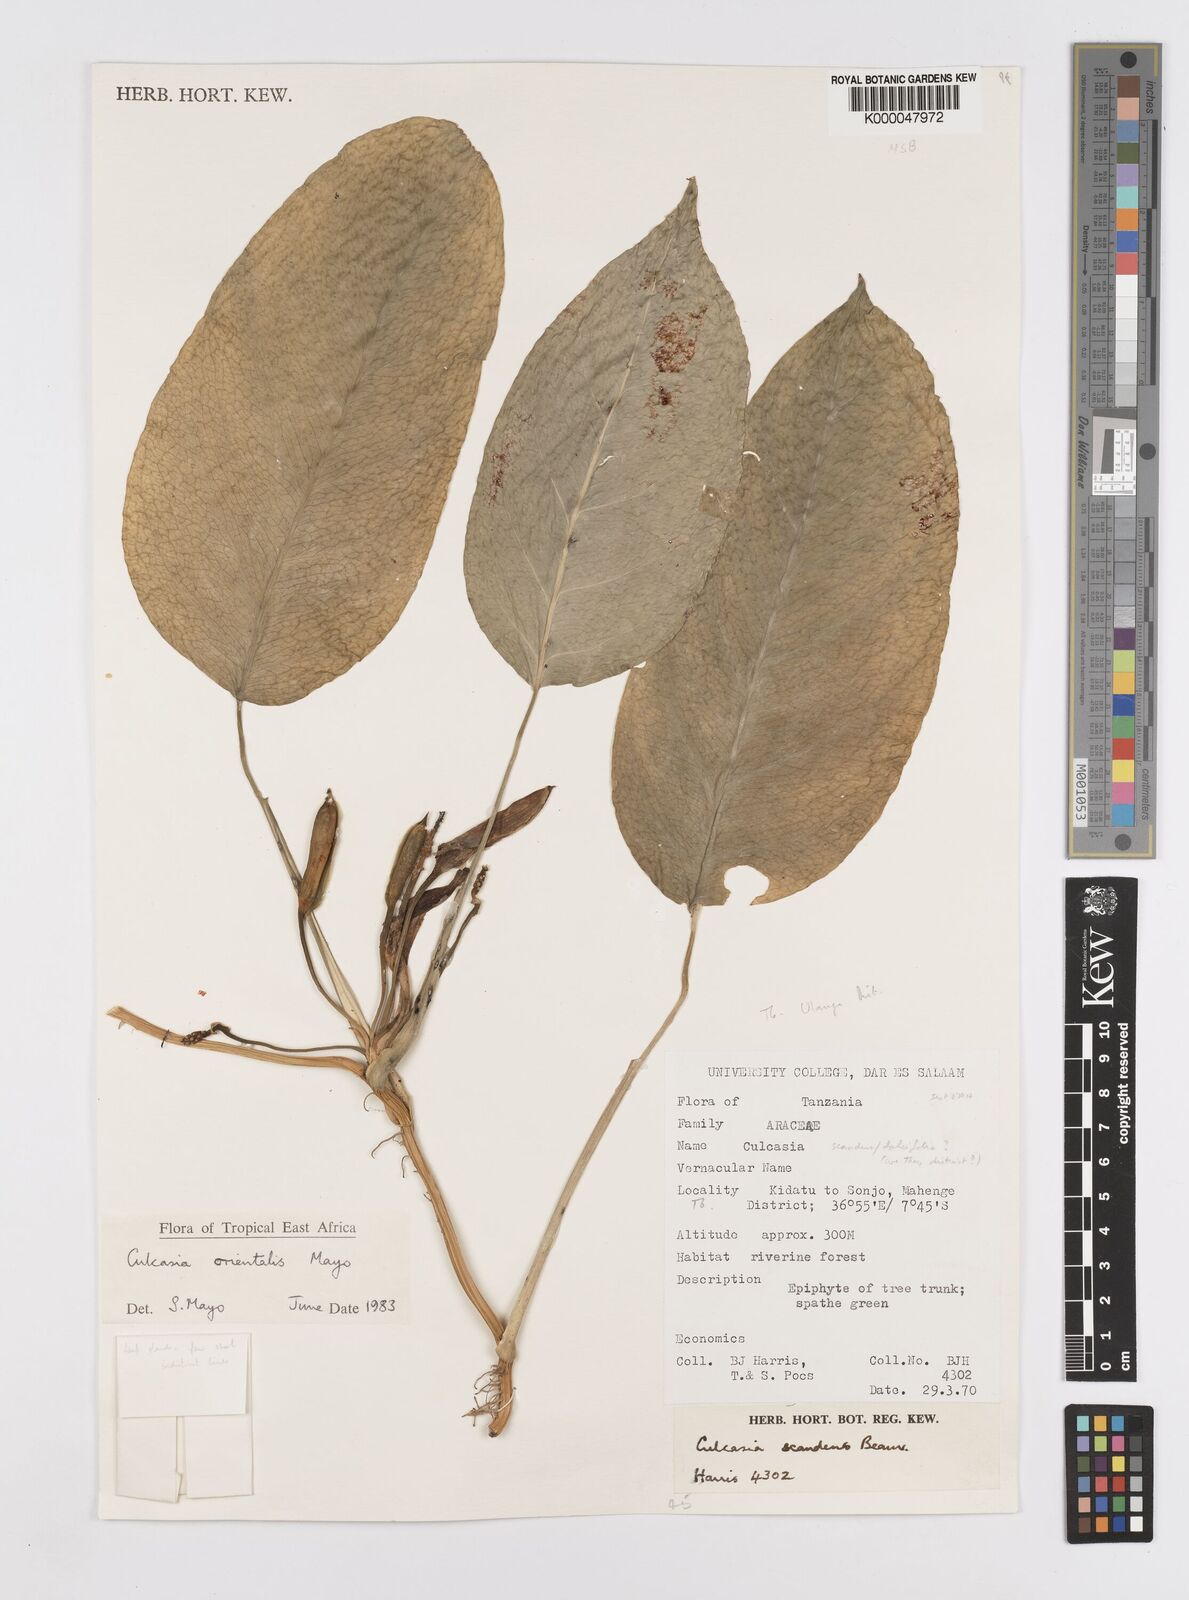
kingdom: Plantae
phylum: Tracheophyta
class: Liliopsida
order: Alismatales
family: Araceae
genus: Culcasia
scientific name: Culcasia orientalis
